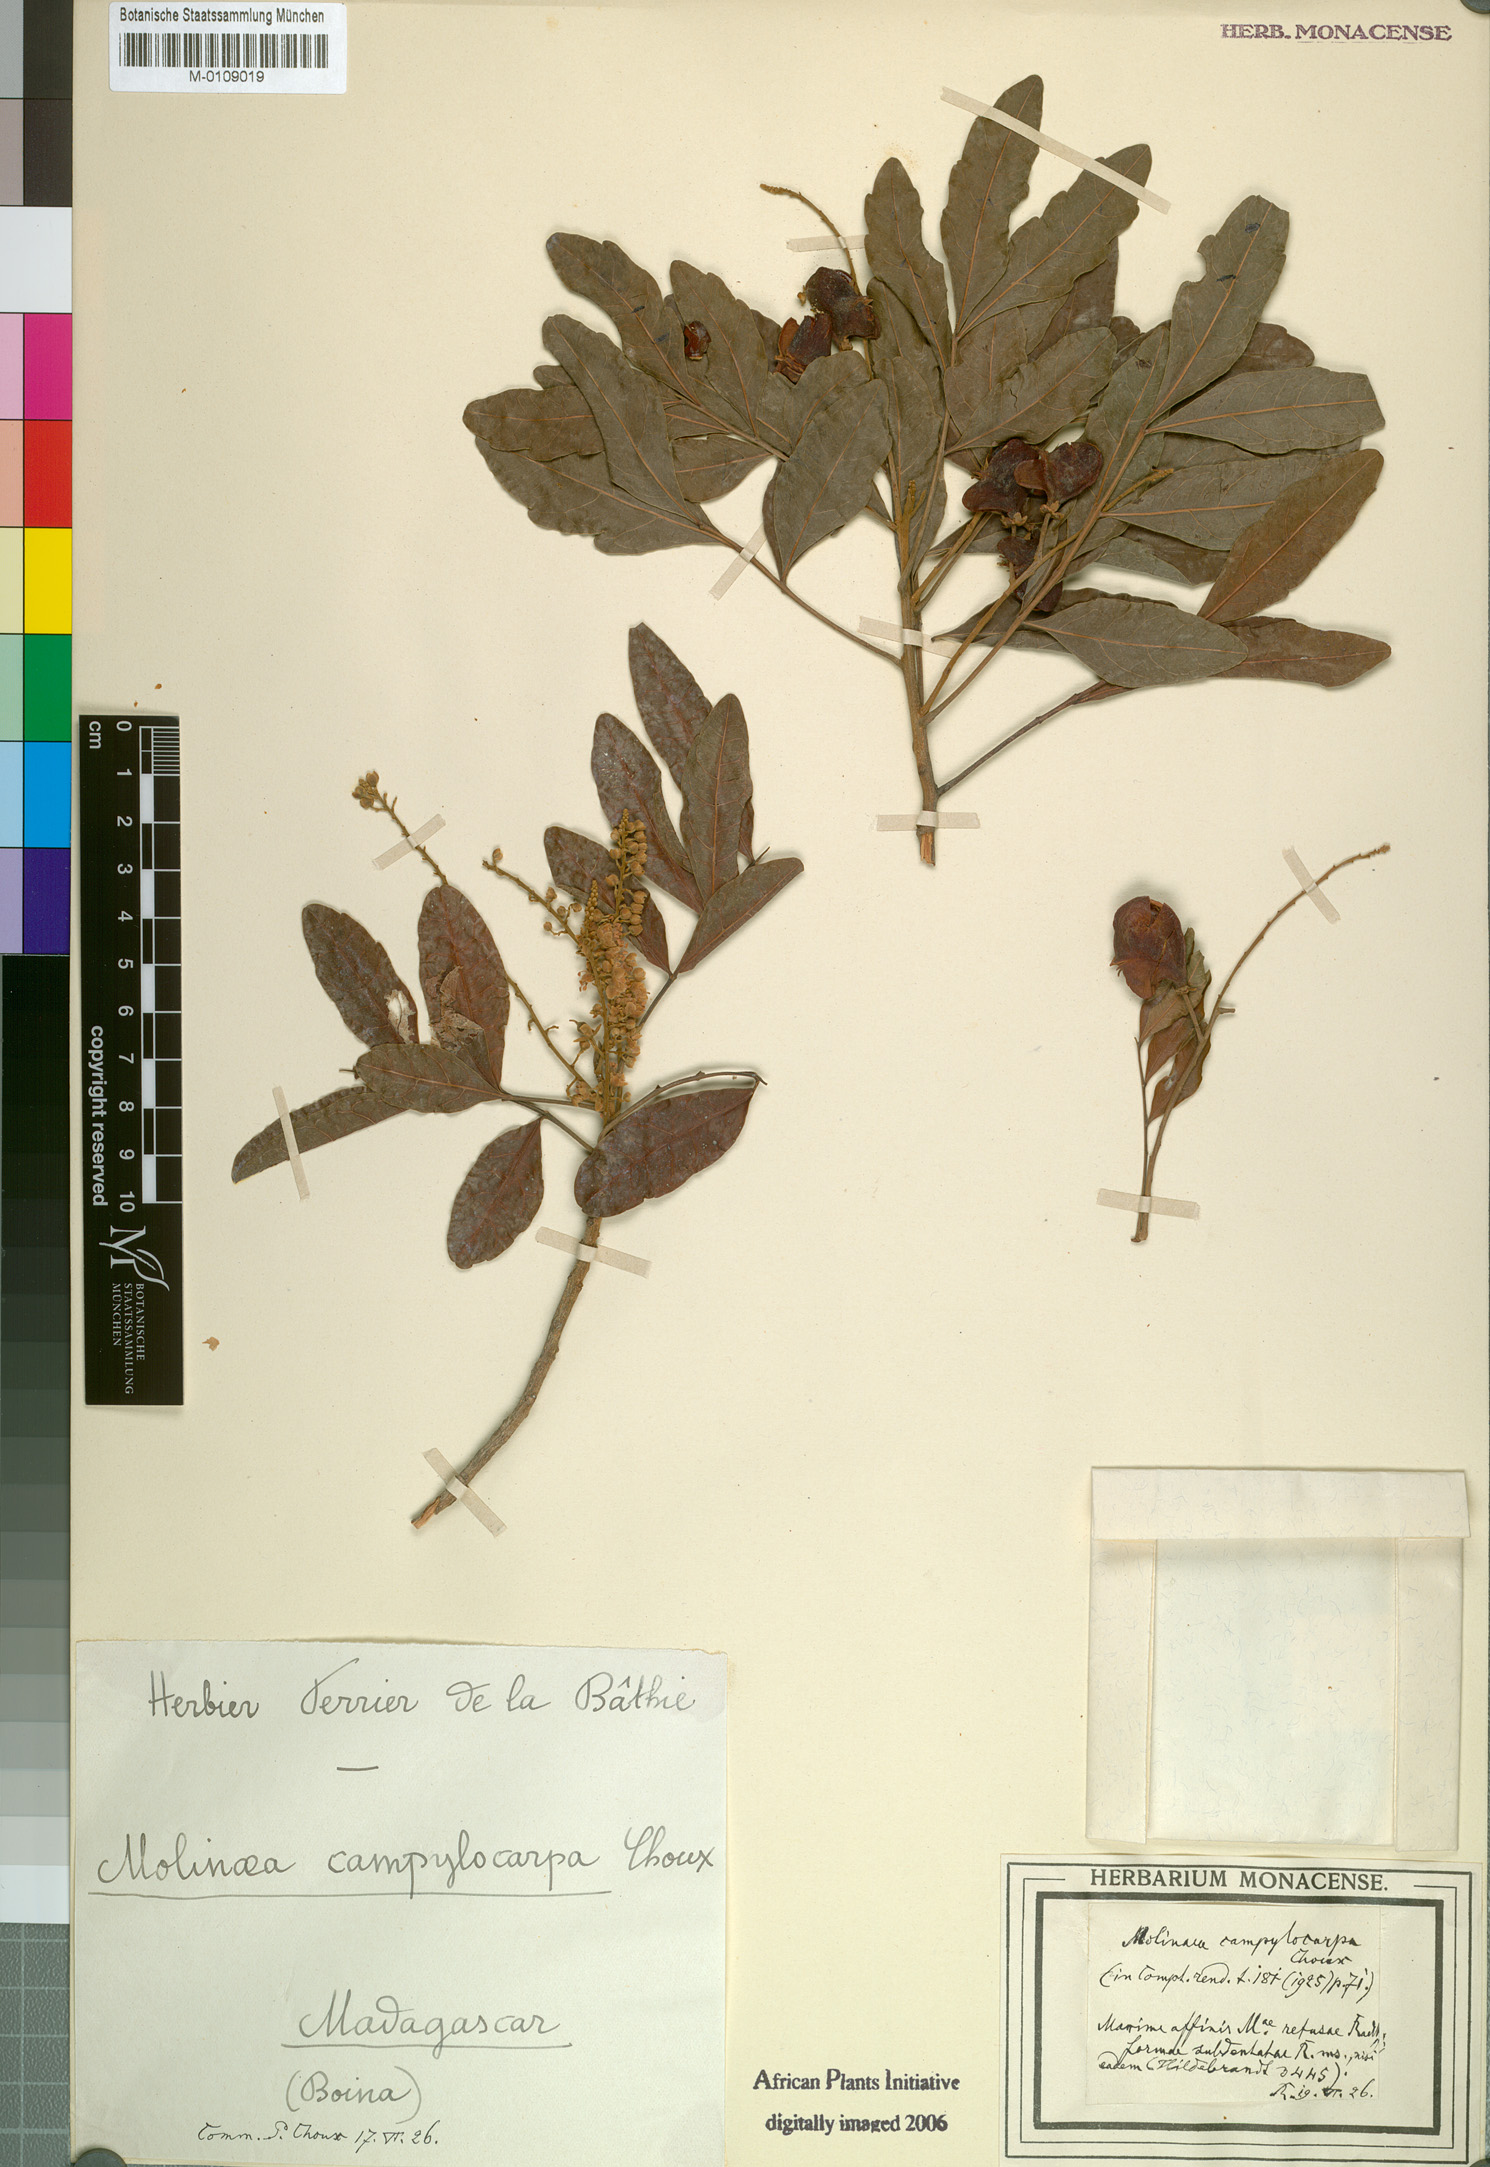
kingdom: Plantae
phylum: Tracheophyta
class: Magnoliopsida
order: Sapindales
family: Sapindaceae
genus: Molinaea
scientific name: Molinaea retusa
